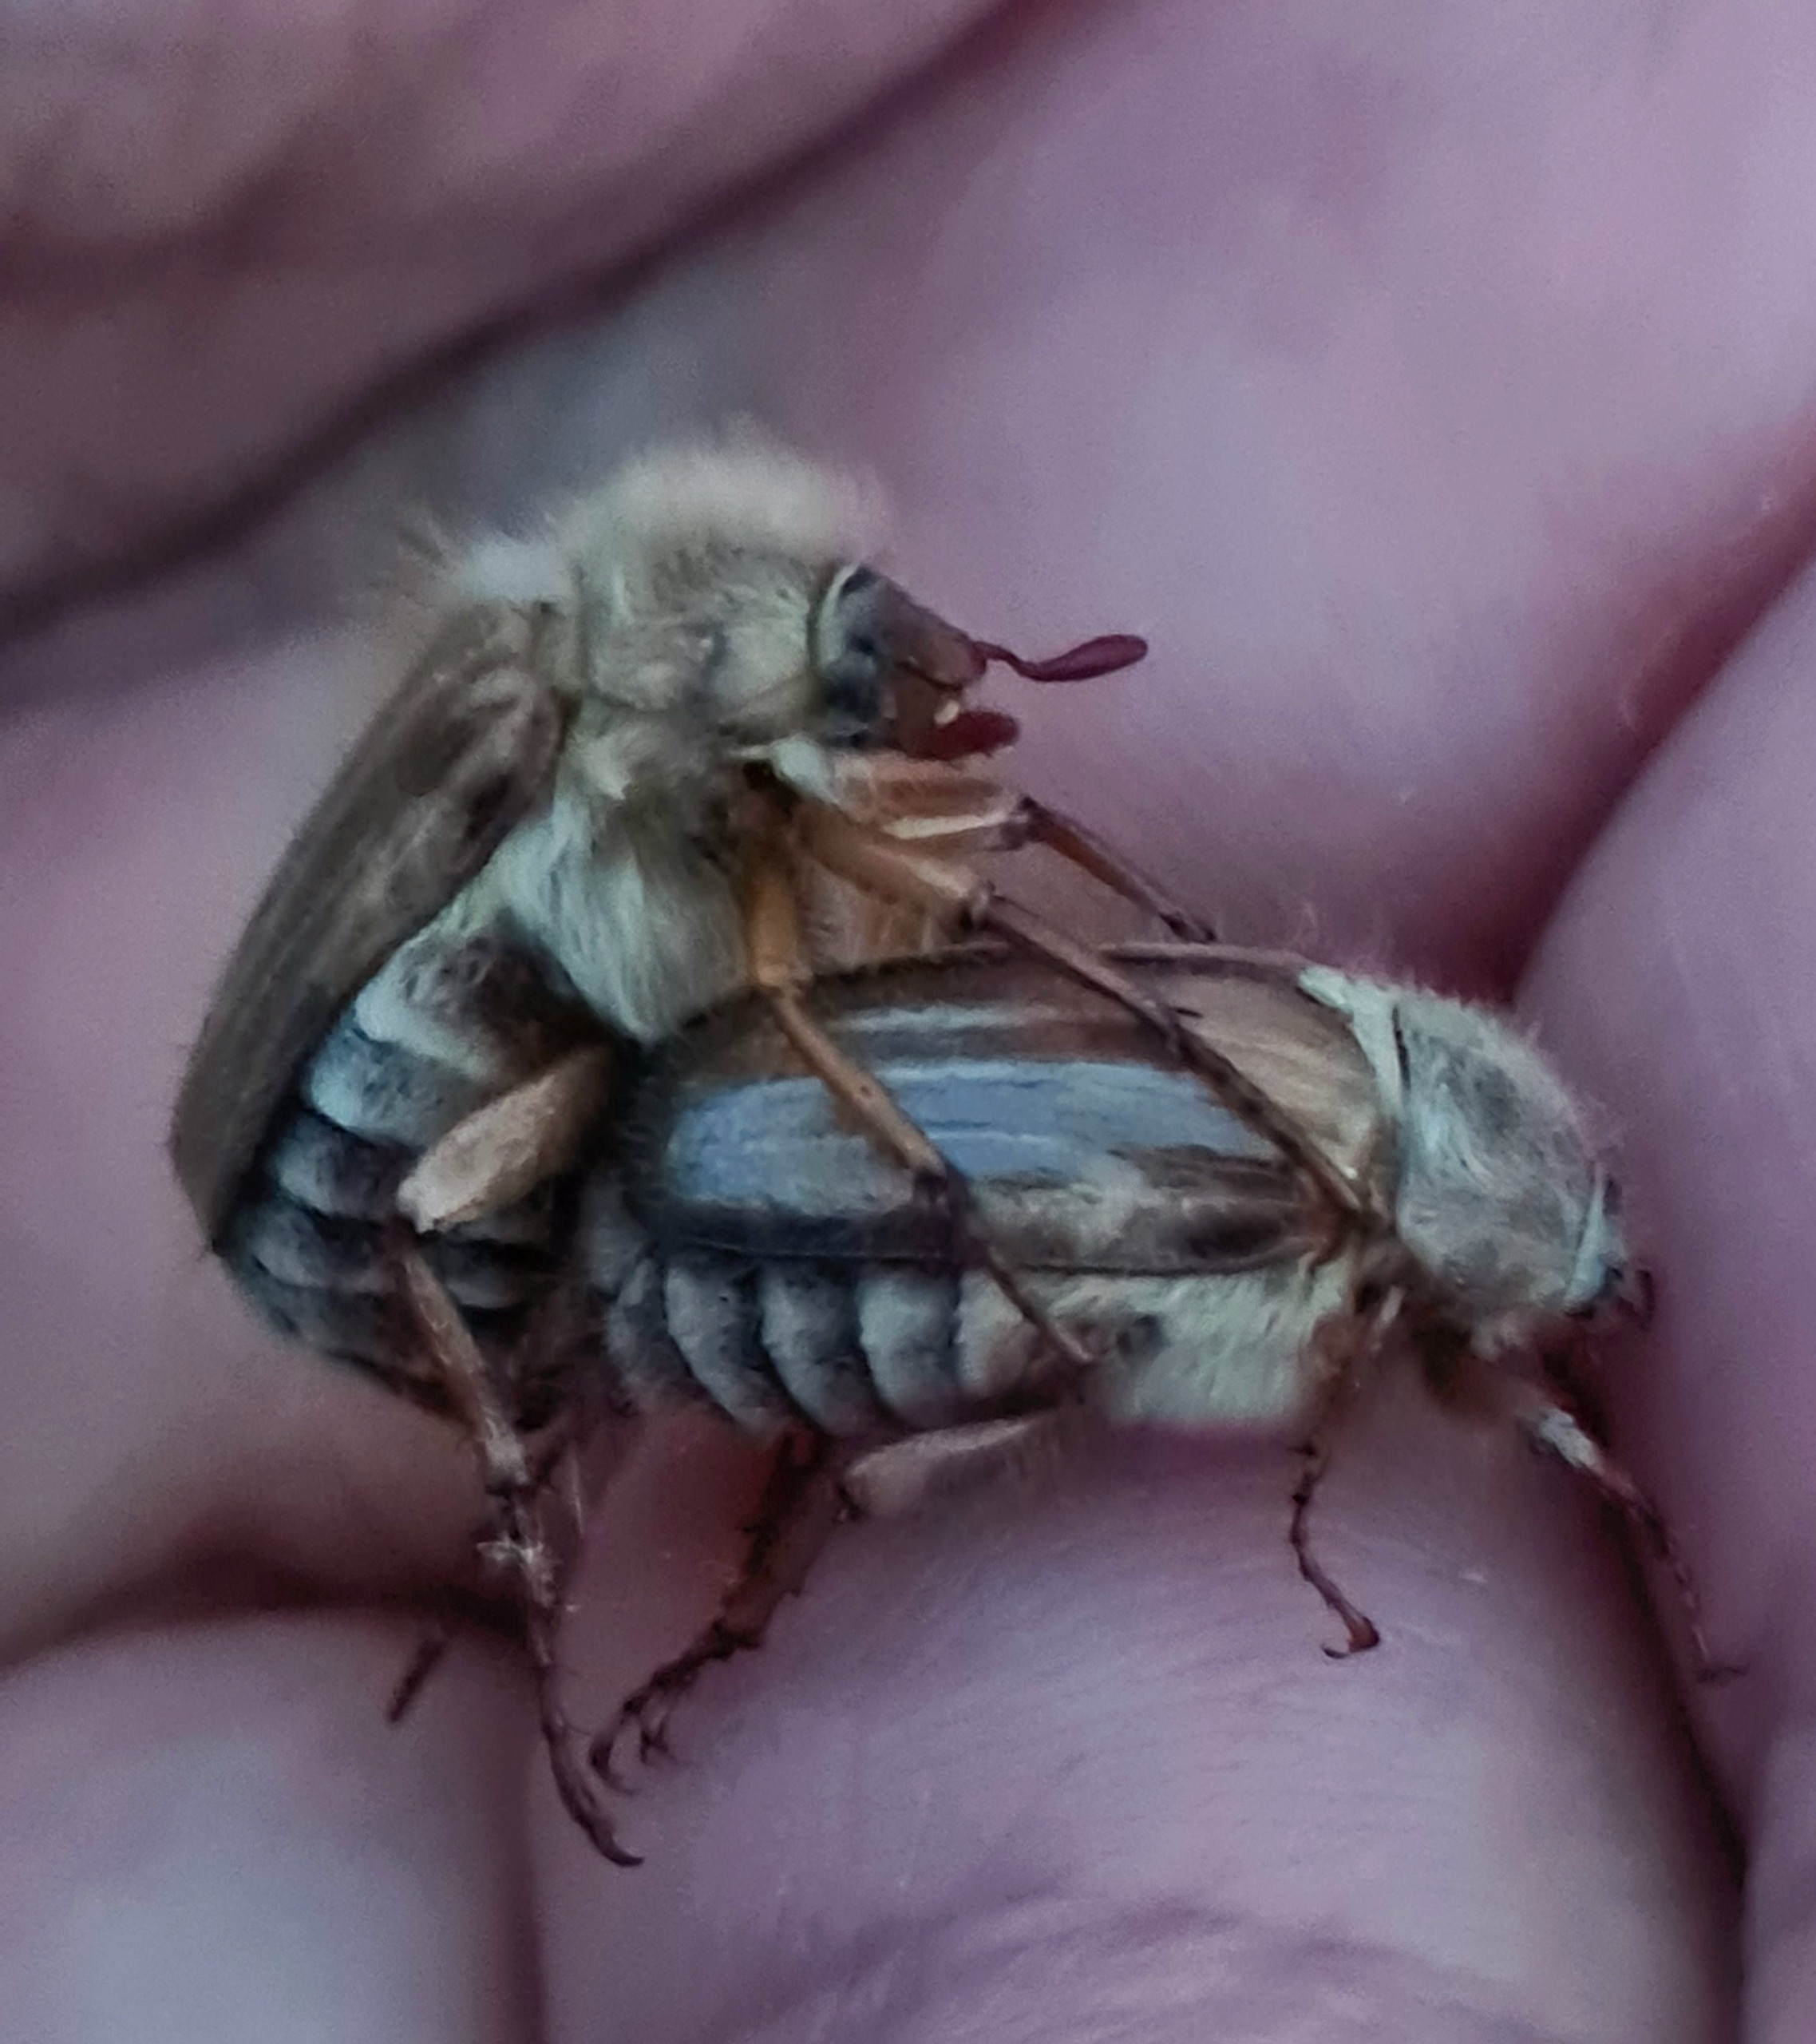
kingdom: Animalia
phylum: Arthropoda
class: Insecta
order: Coleoptera
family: Scarabaeidae
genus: Amphimallon
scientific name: Amphimallon solstitiale
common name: Sankthansoldenborre
